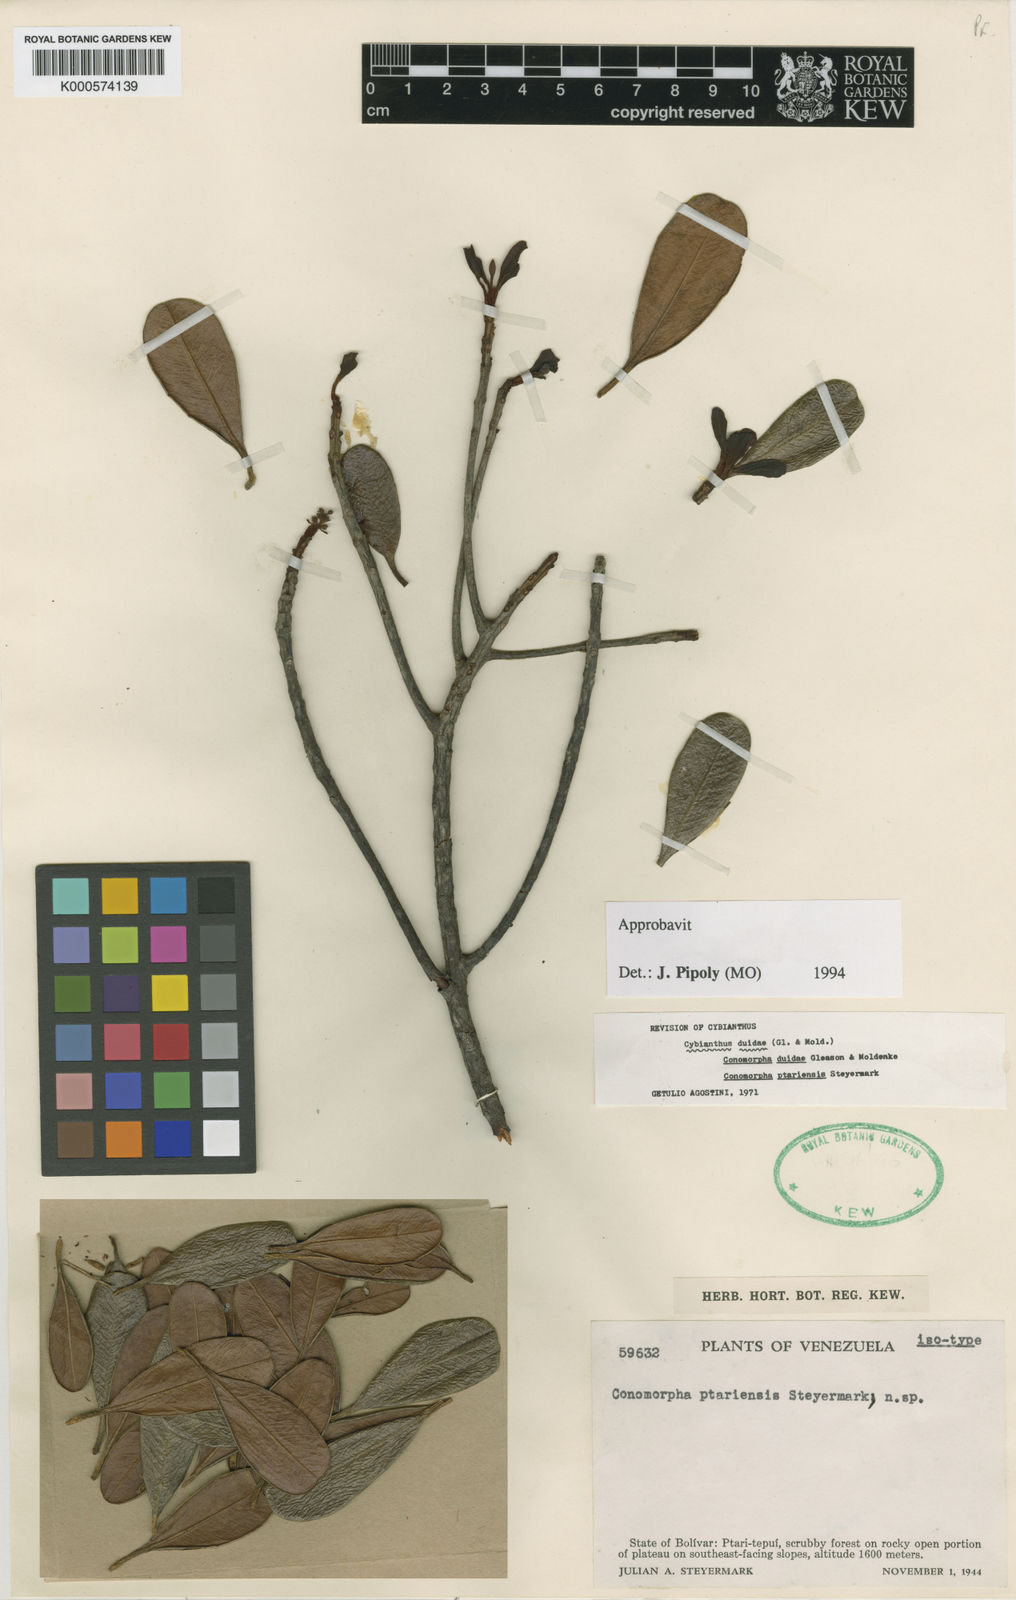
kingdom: Plantae
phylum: Tracheophyta
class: Magnoliopsida
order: Ericales
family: Primulaceae
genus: Cybianthus
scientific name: Cybianthus duidae
